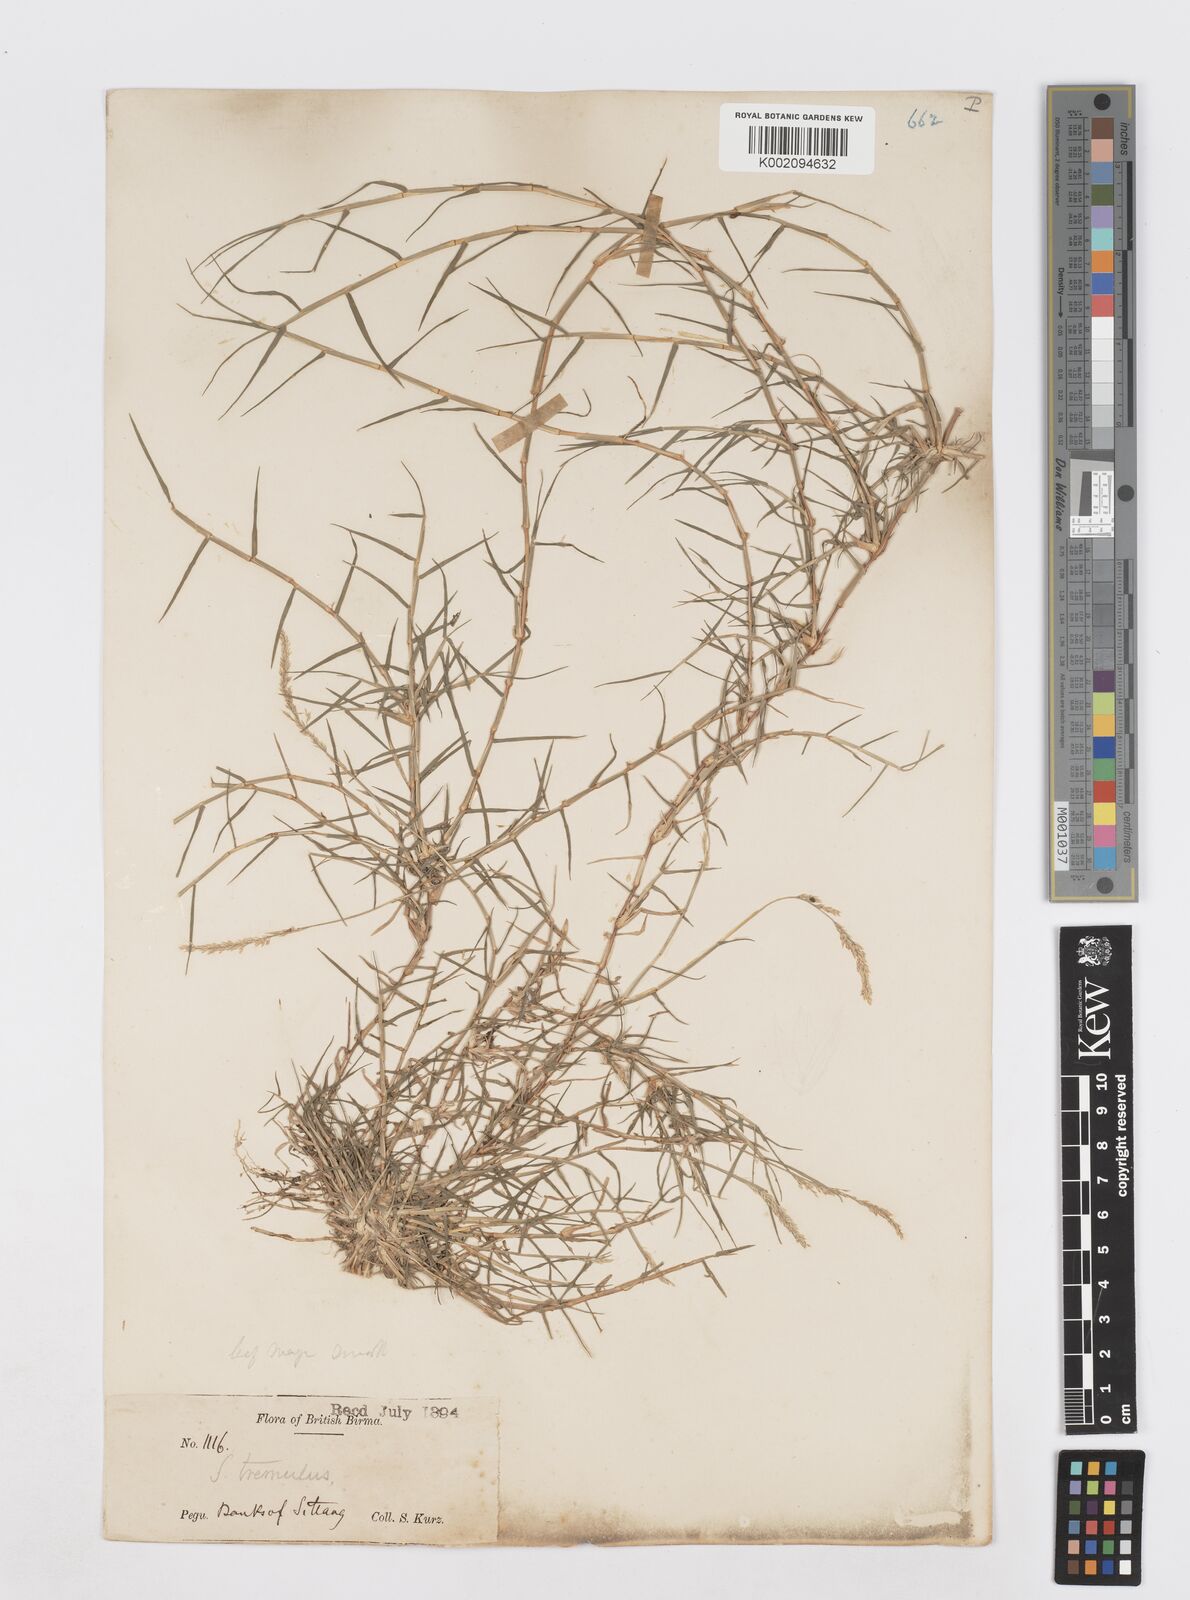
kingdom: Plantae
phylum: Tracheophyta
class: Liliopsida
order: Poales
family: Poaceae
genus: Sporobolus
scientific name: Sporobolus virginicus
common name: Beach dropseed
